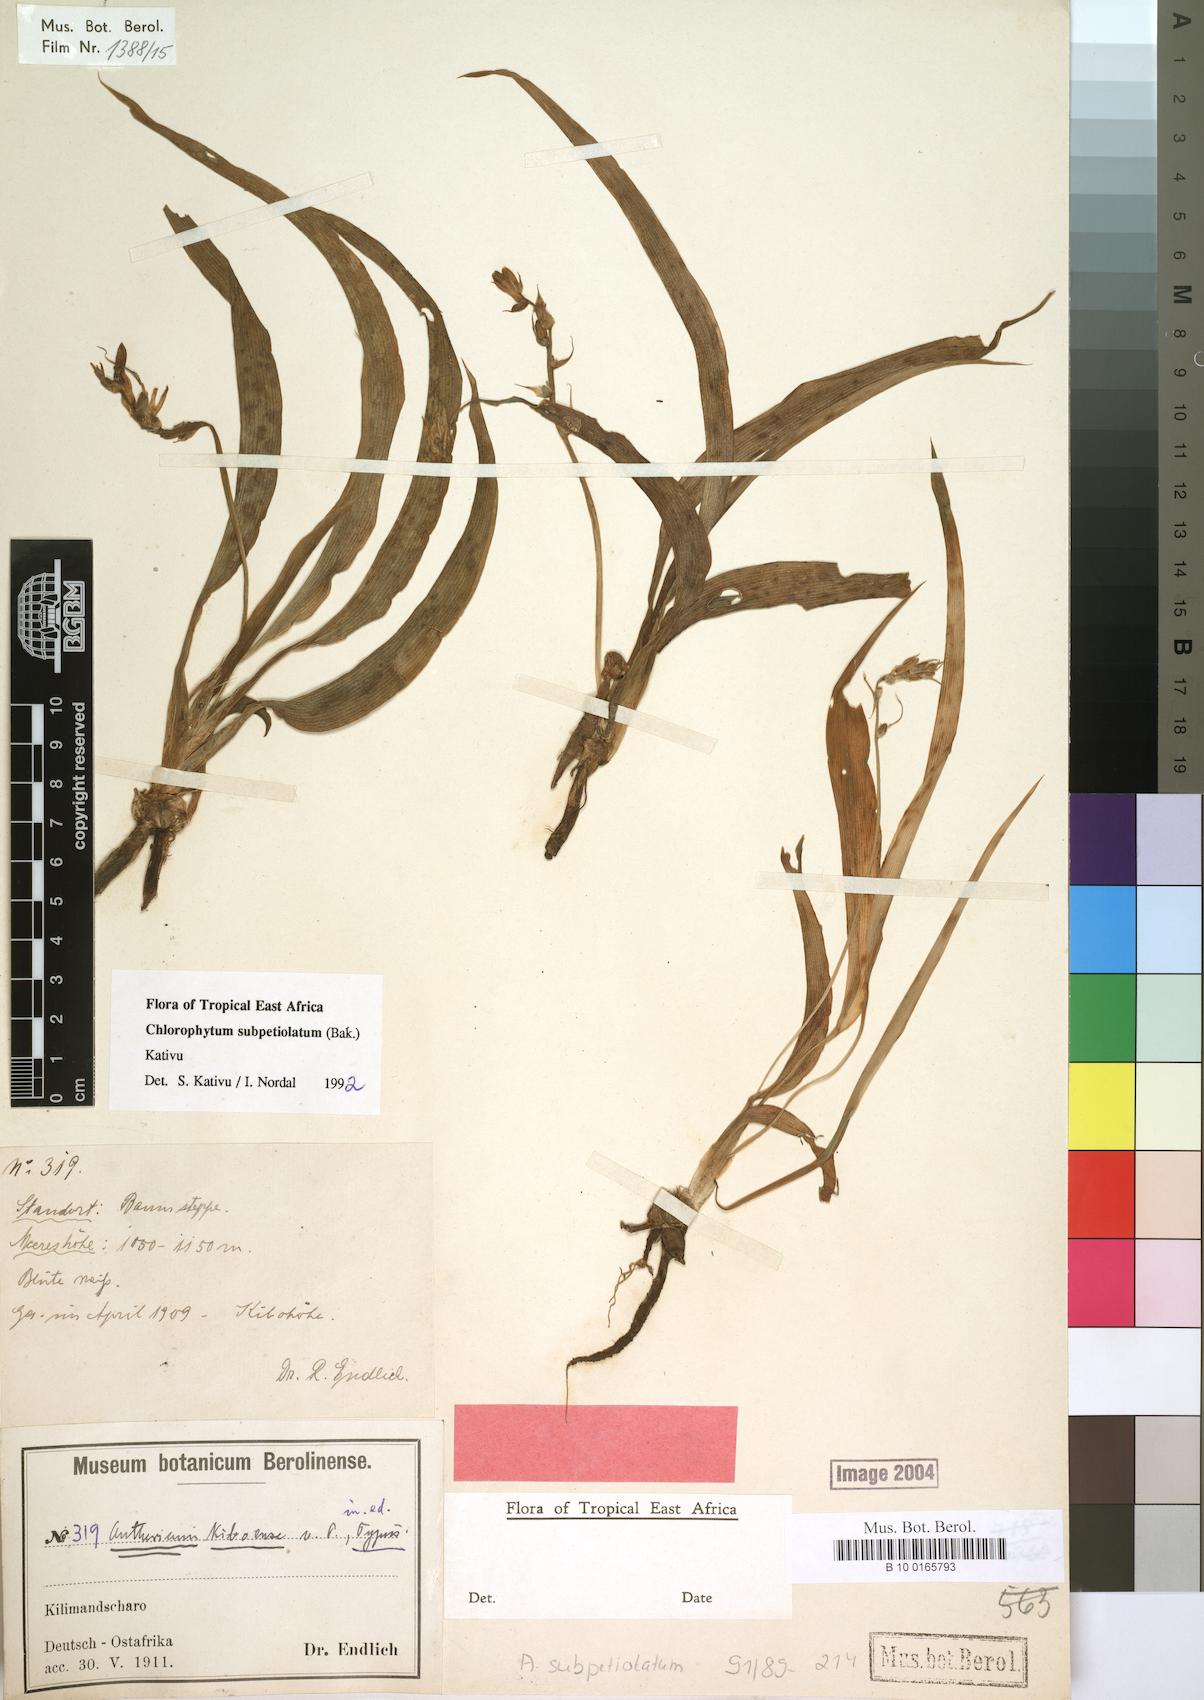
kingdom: Plantae
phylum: Tracheophyta
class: Liliopsida
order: Asparagales
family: Asparagaceae
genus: Chlorophytum
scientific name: Chlorophytum subpetiolatum
